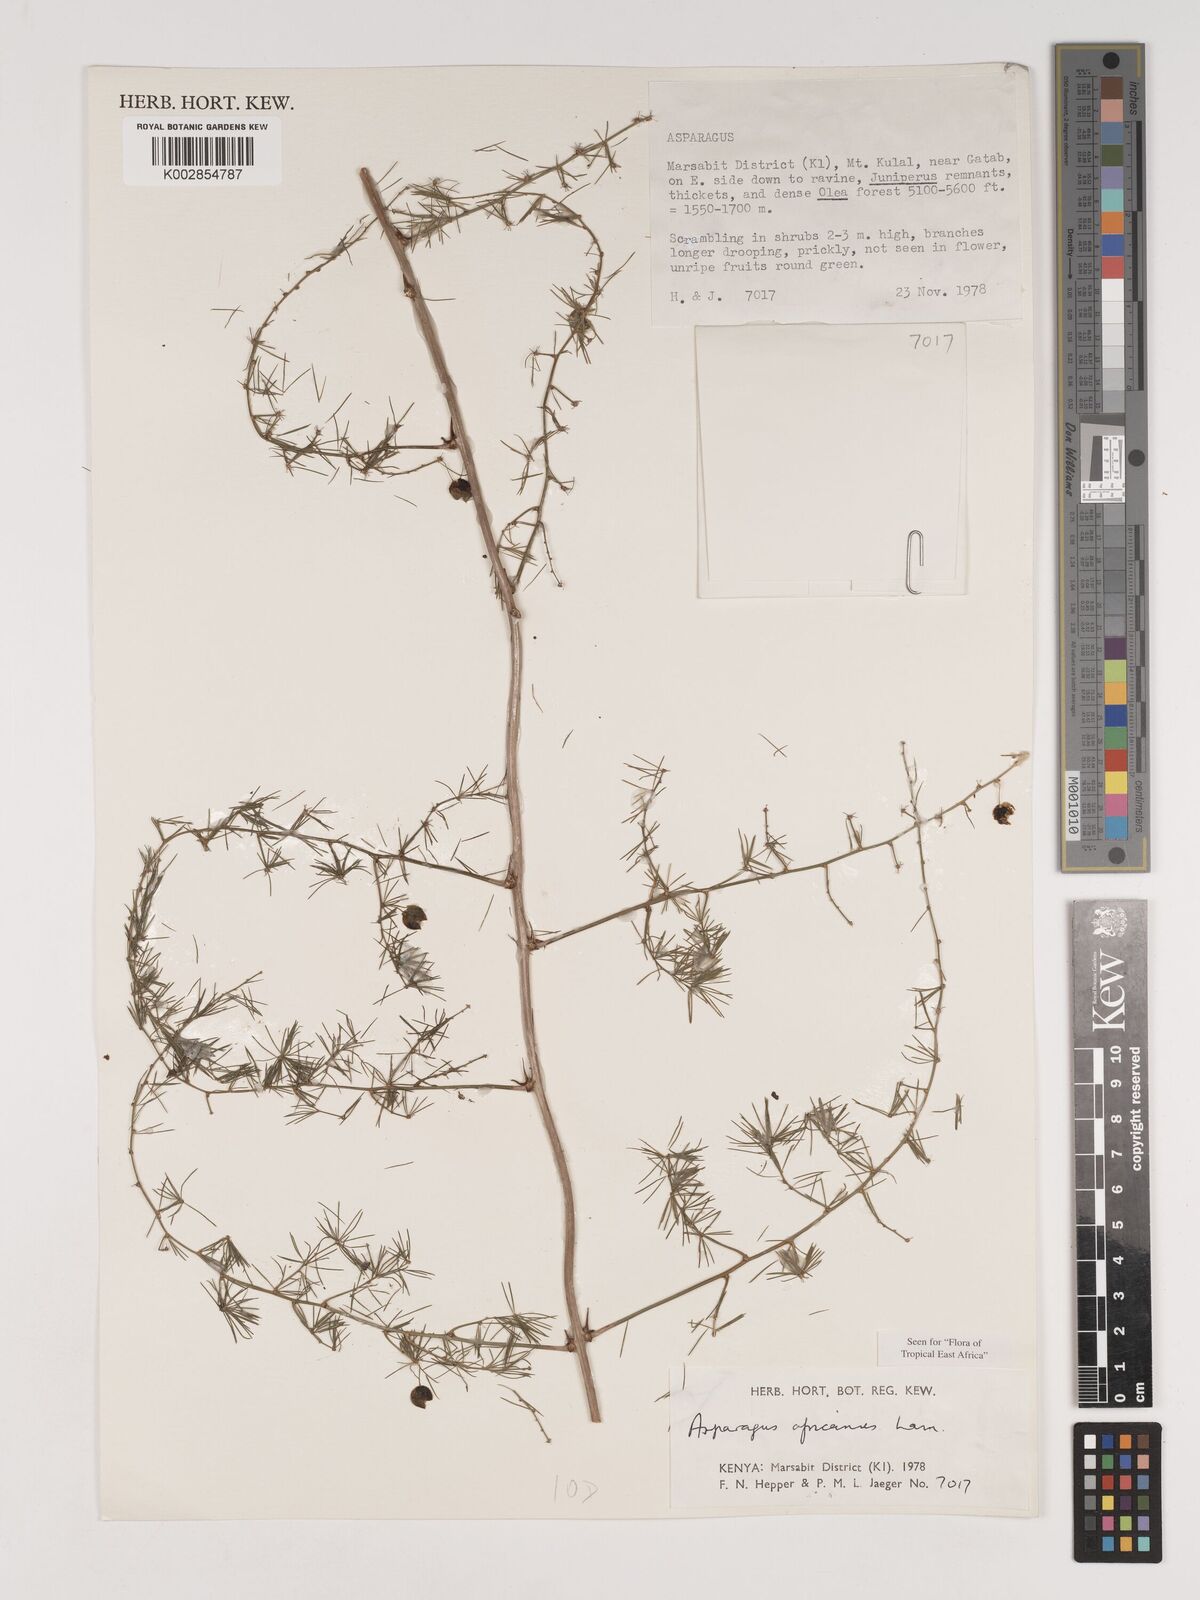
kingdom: Plantae
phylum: Tracheophyta
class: Liliopsida
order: Asparagales
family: Asparagaceae
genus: Asparagus
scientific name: Asparagus africanus
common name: Asparagus-fern
